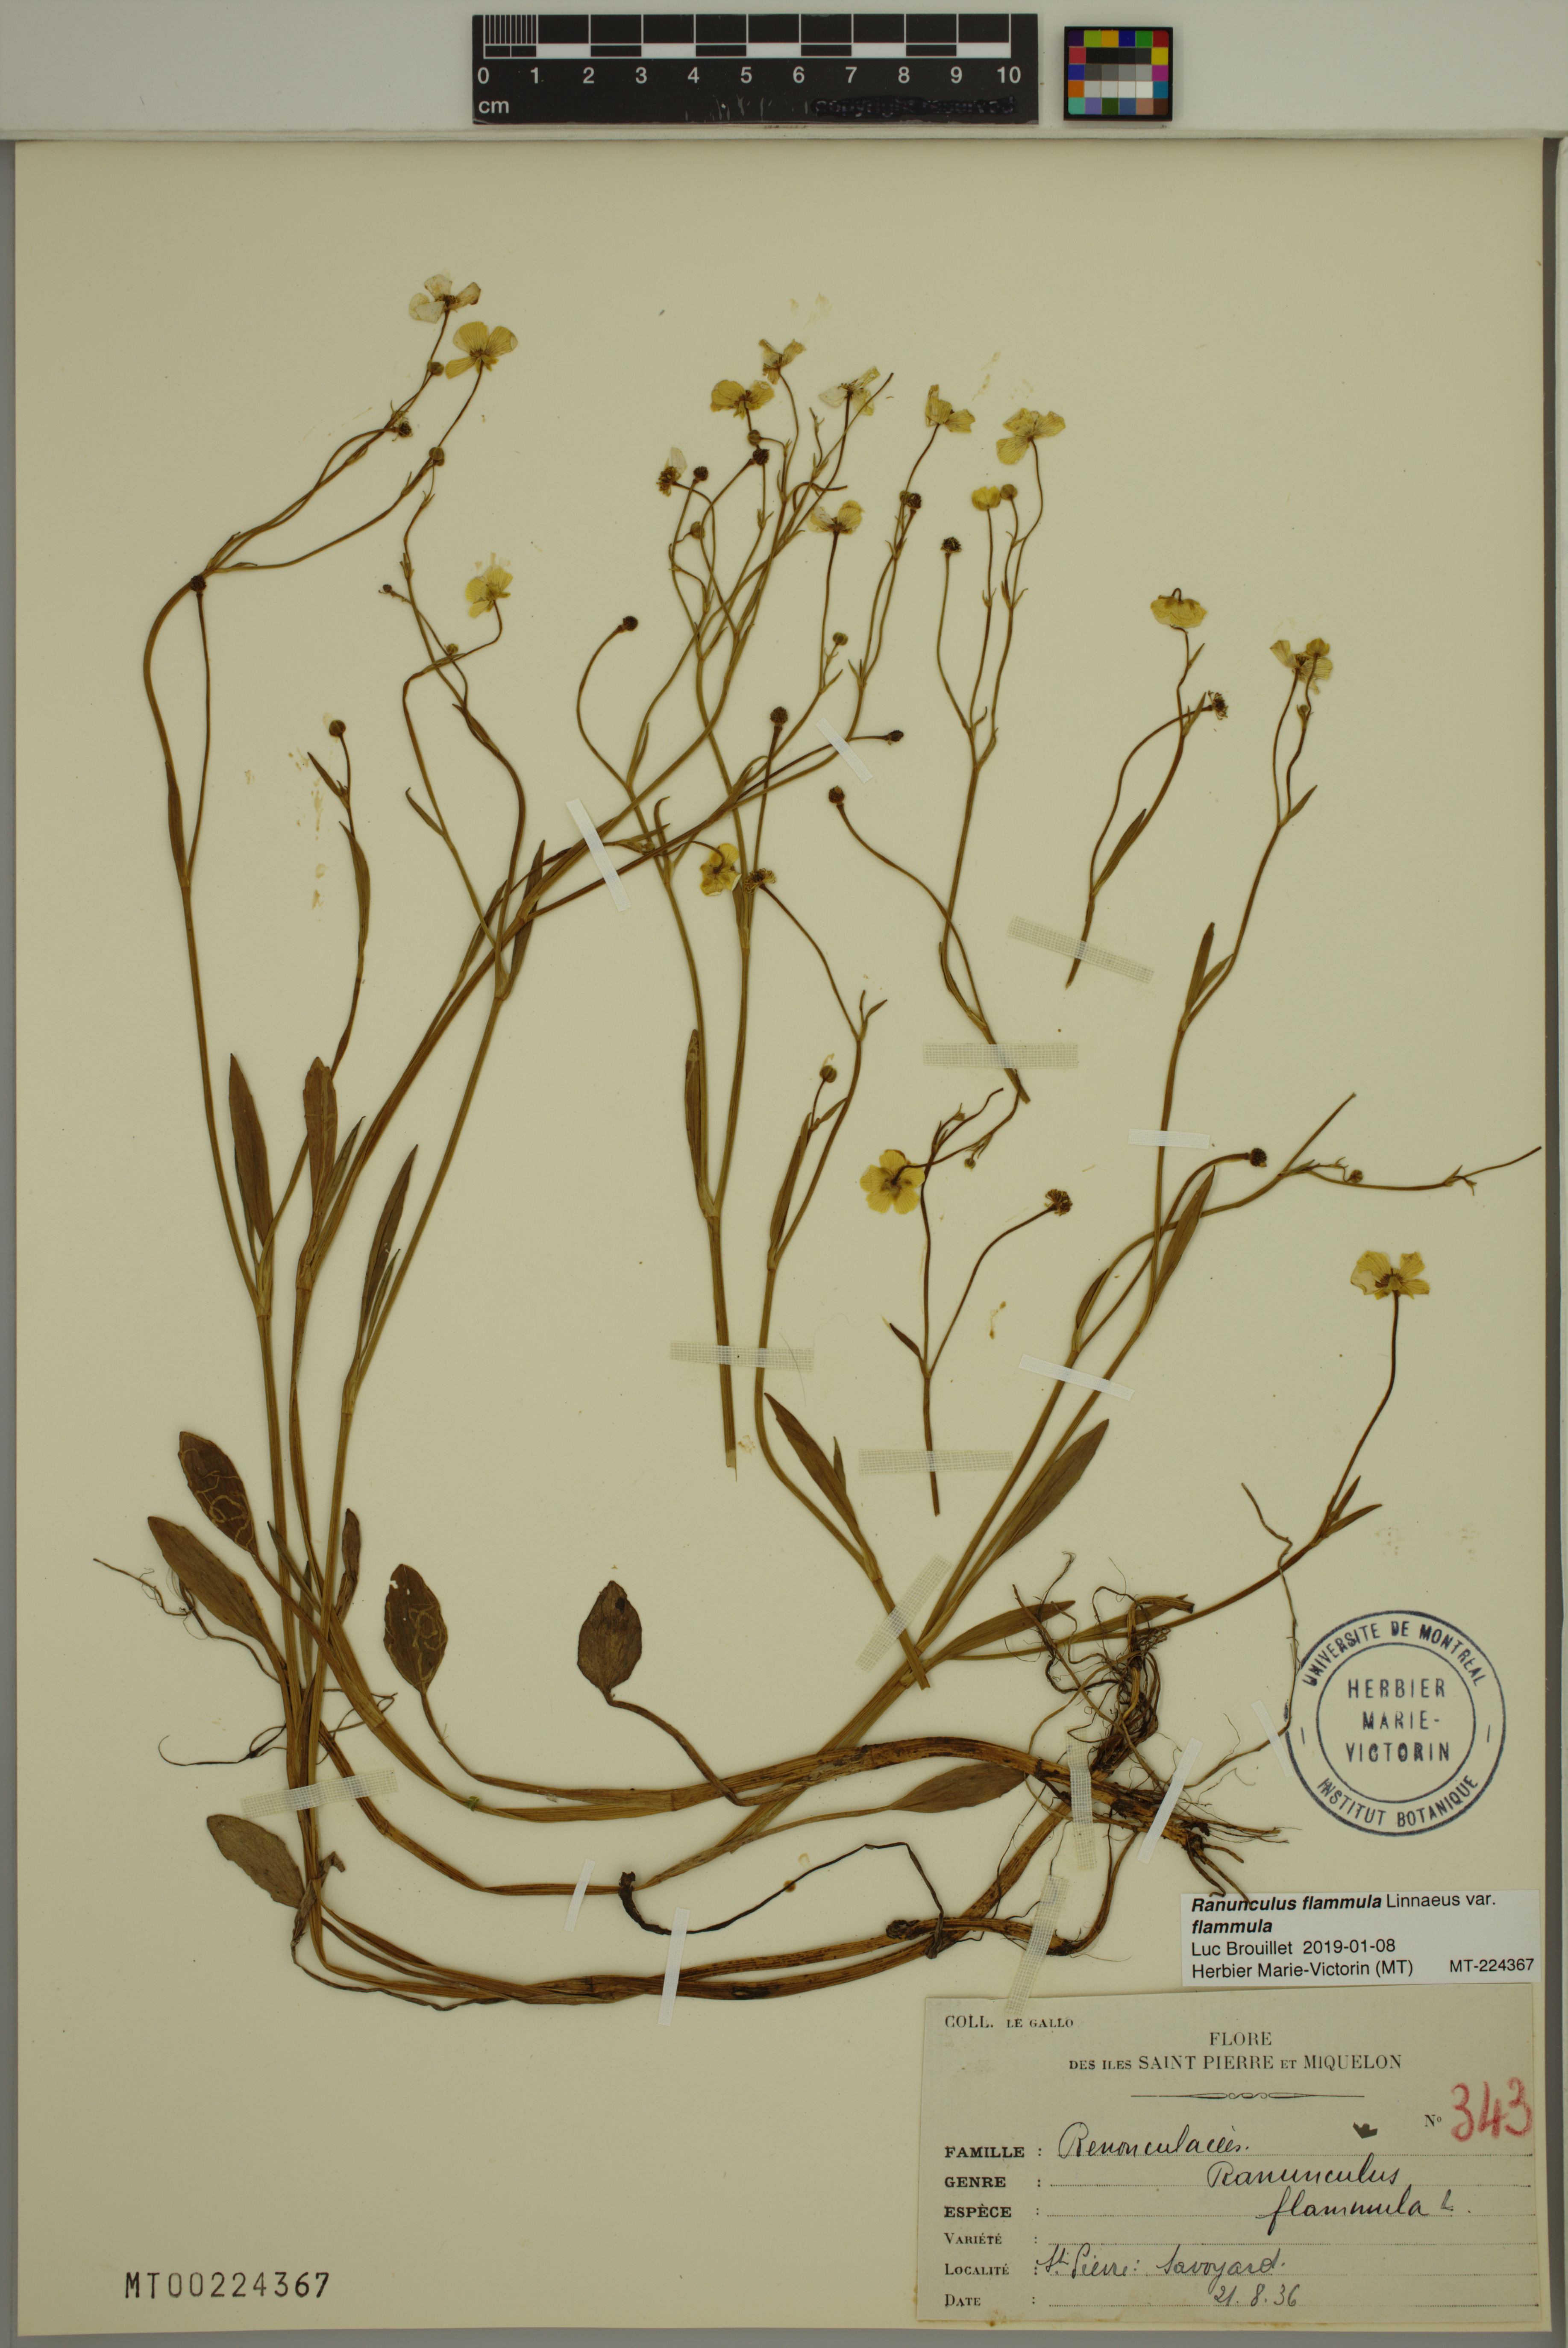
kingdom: Plantae
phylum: Tracheophyta
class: Magnoliopsida
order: Ranunculales
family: Ranunculaceae
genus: Ranunculus
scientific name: Ranunculus flammula
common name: Lesser spearwort
